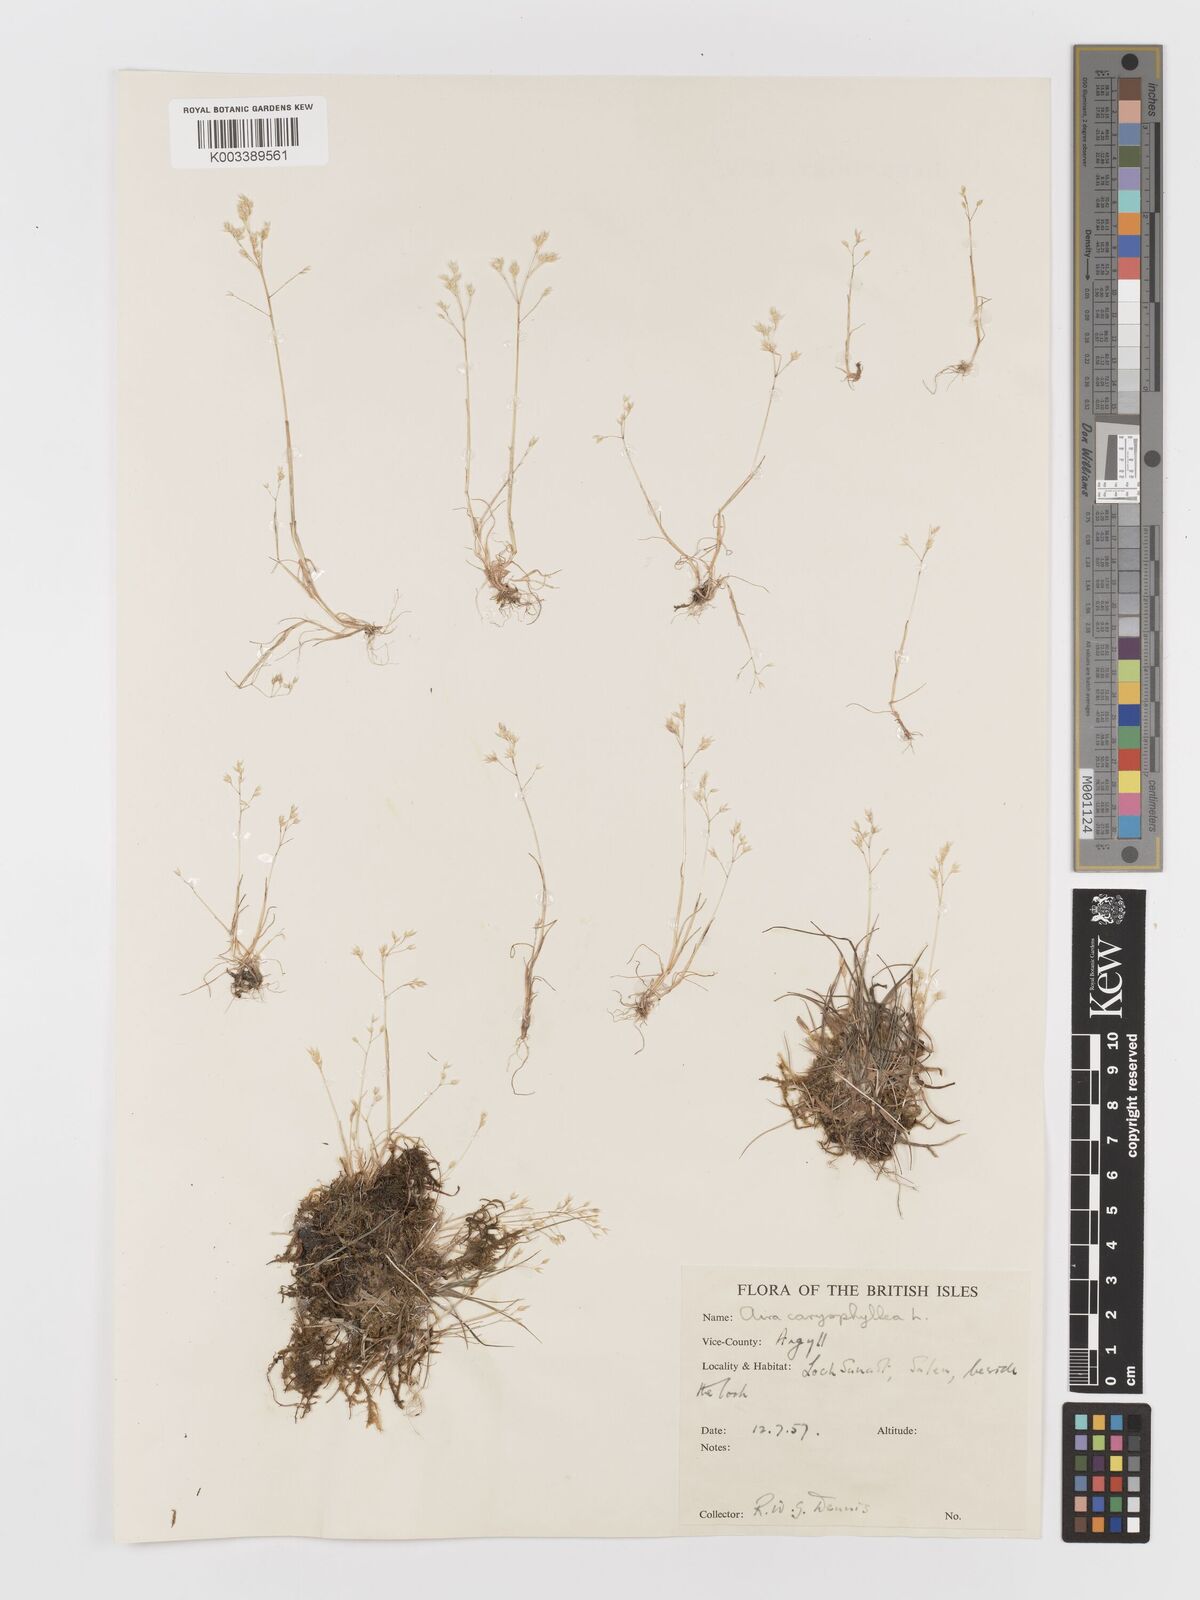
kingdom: Plantae
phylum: Tracheophyta
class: Liliopsida
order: Poales
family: Poaceae
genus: Aira
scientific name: Aira caryophyllea
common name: Silver hairgrass
